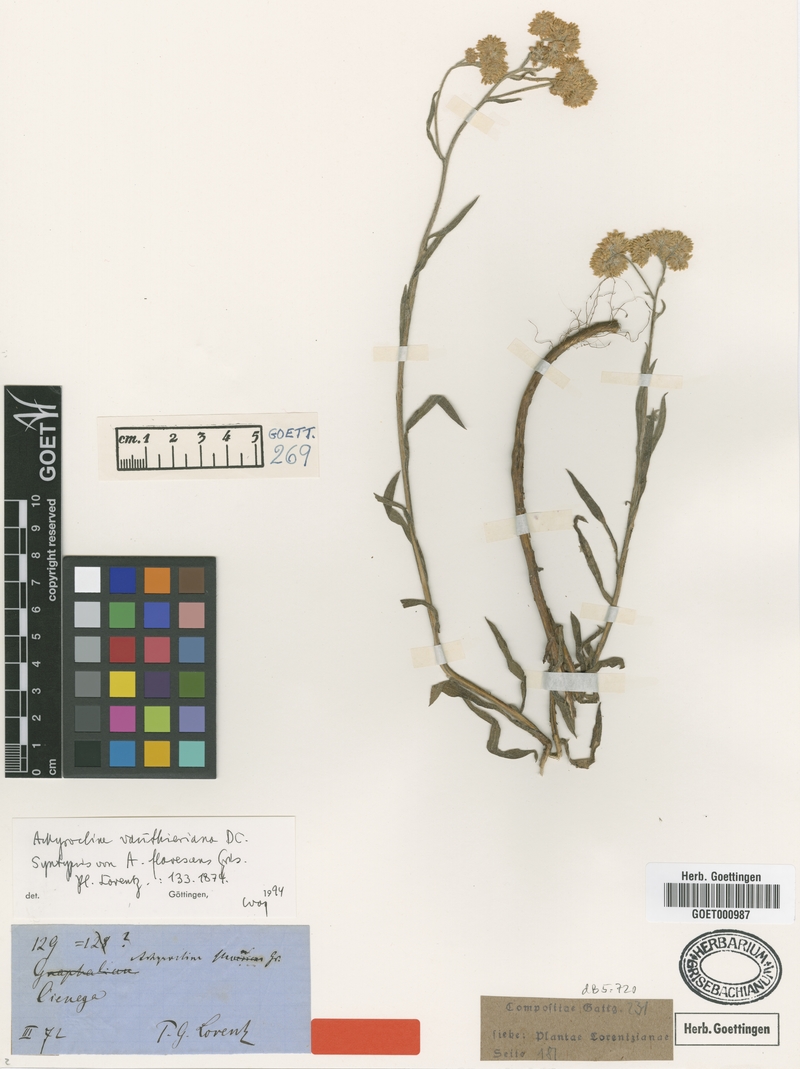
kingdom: Plantae
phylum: Tracheophyta
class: Magnoliopsida
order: Asterales
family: Asteraceae
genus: Achyrocline
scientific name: Achyrocline vauthieriana
